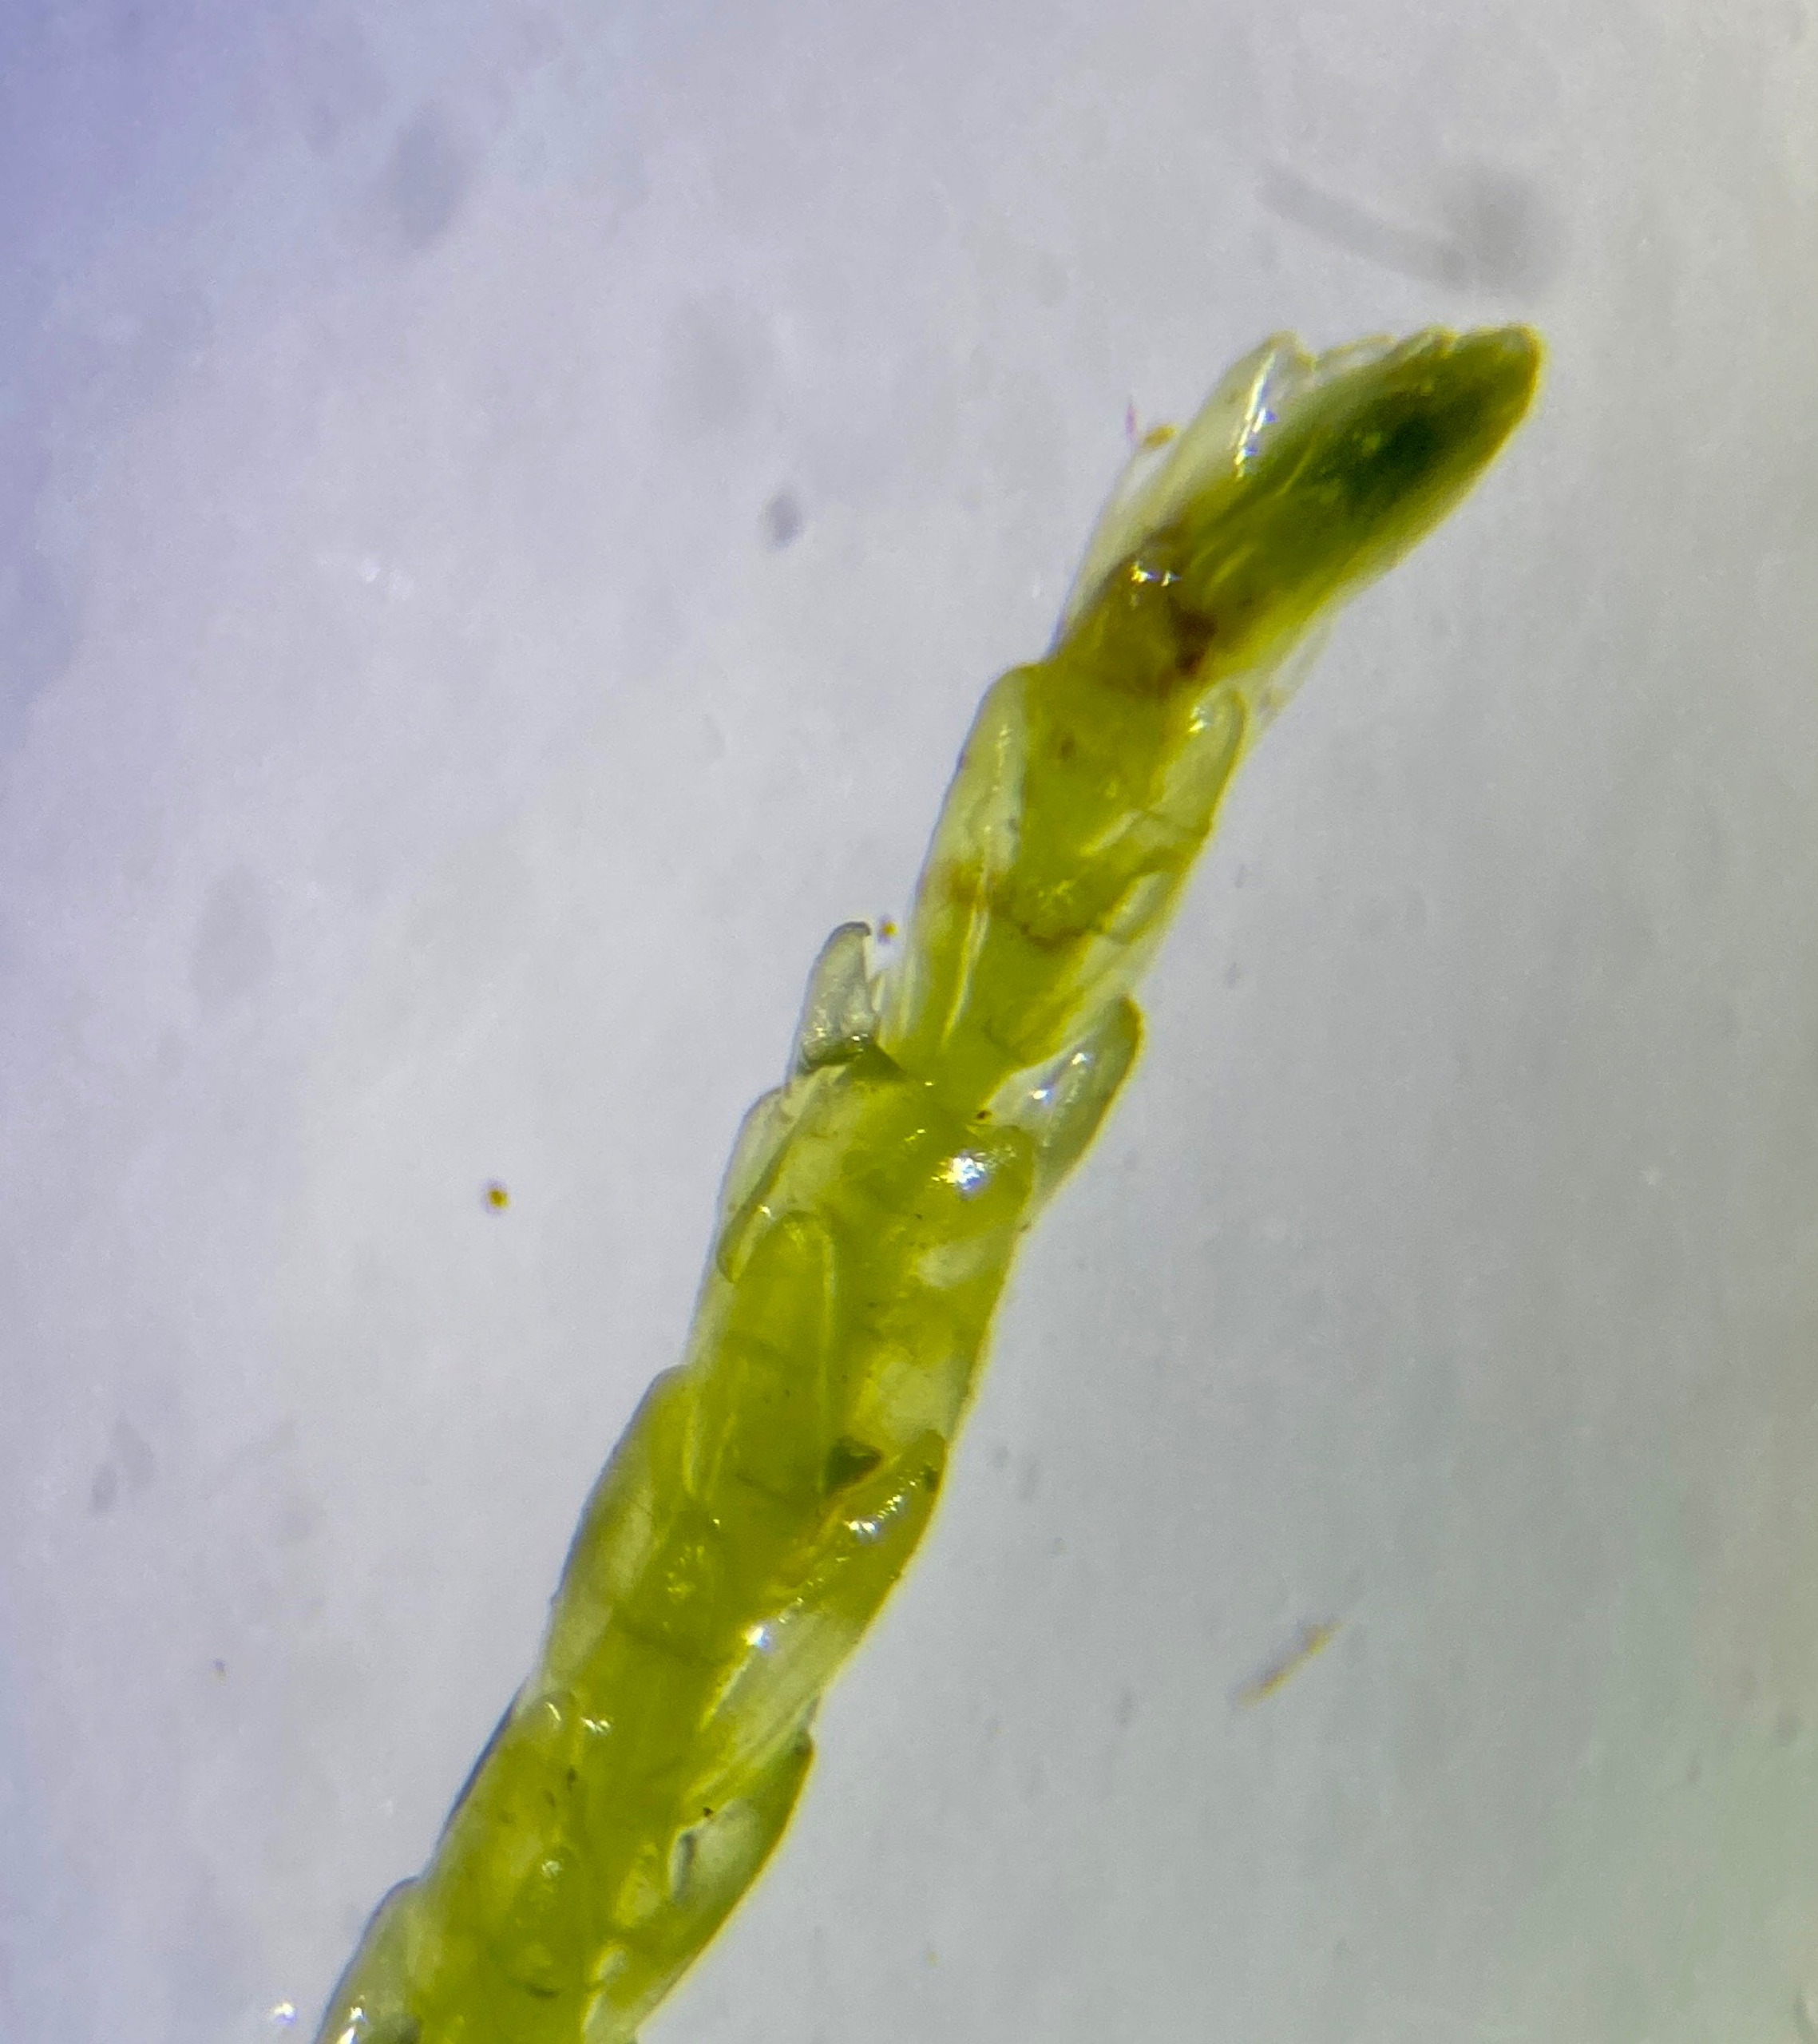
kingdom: Plantae
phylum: Bryophyta
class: Bryopsida
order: Hypnales
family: Calliergonaceae
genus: Straminergon
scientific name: Straminergon stramineum
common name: Tråd-skebladsmos
